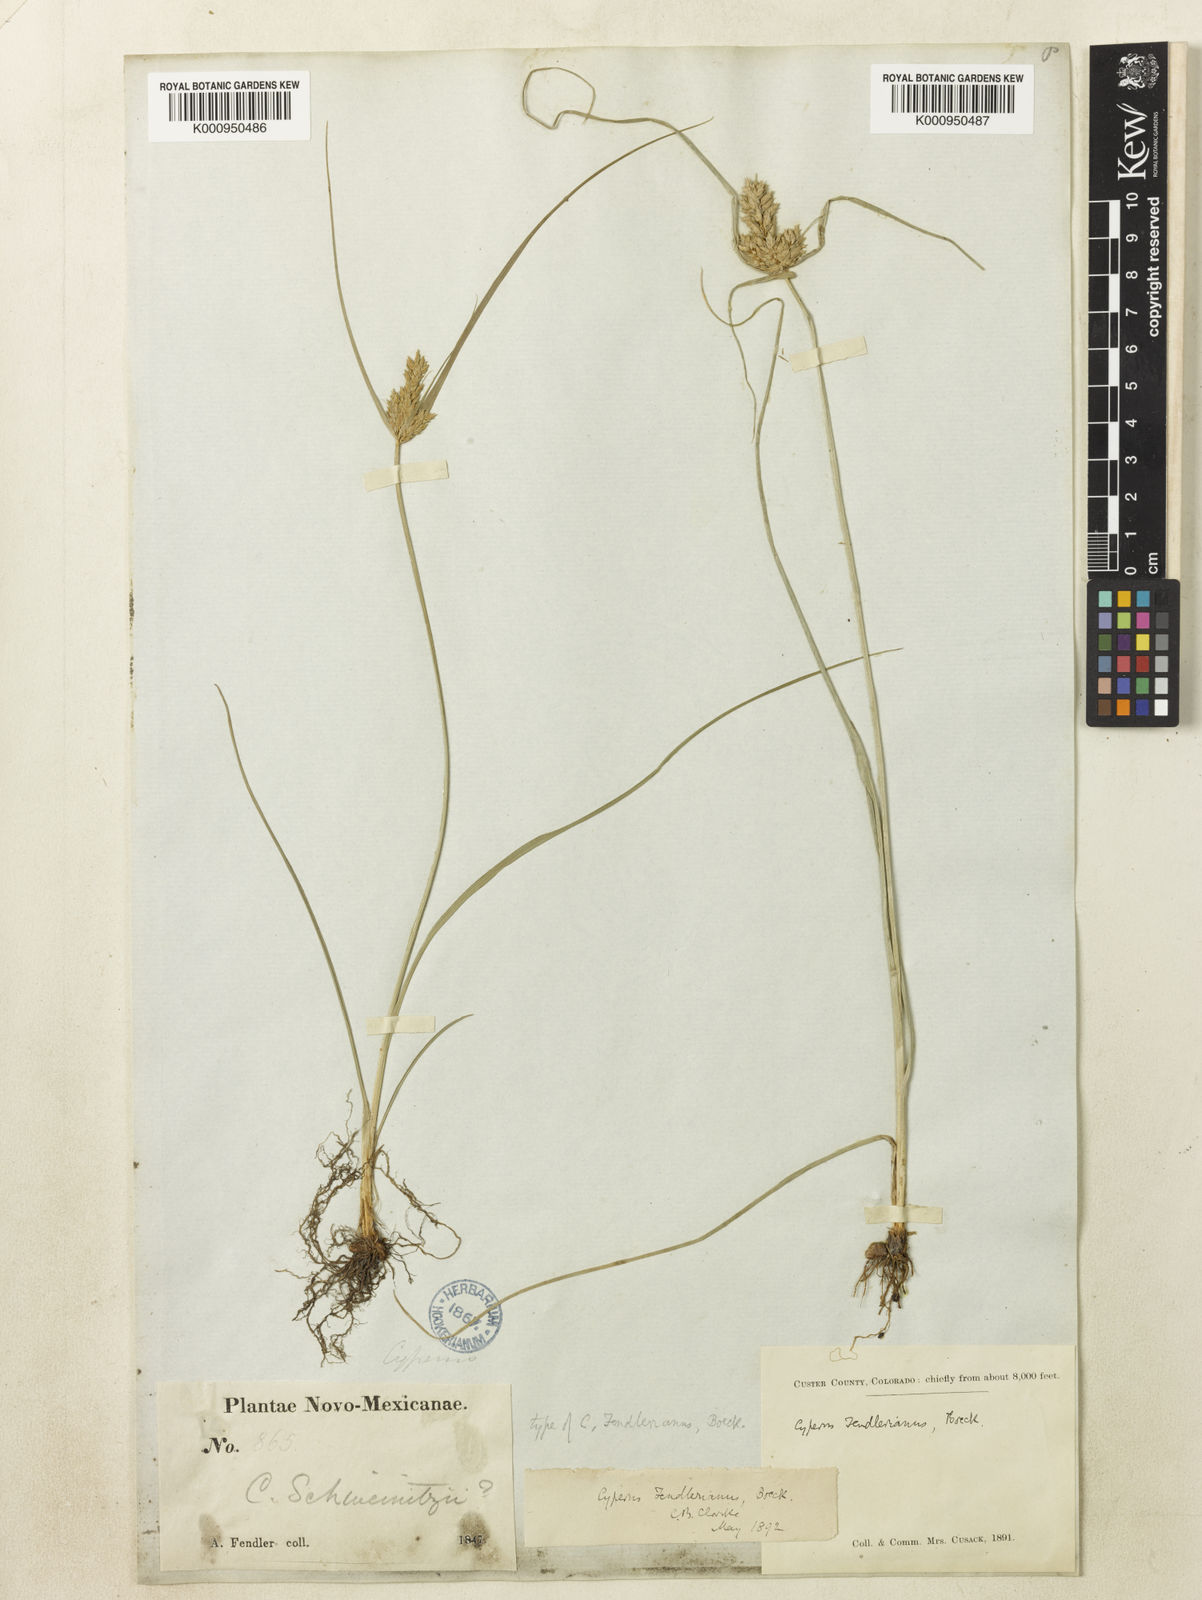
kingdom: Plantae
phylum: Tracheophyta
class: Liliopsida
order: Poales
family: Cyperaceae
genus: Cyperus
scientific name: Cyperus fendlerianus
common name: Fendler flat sedge
